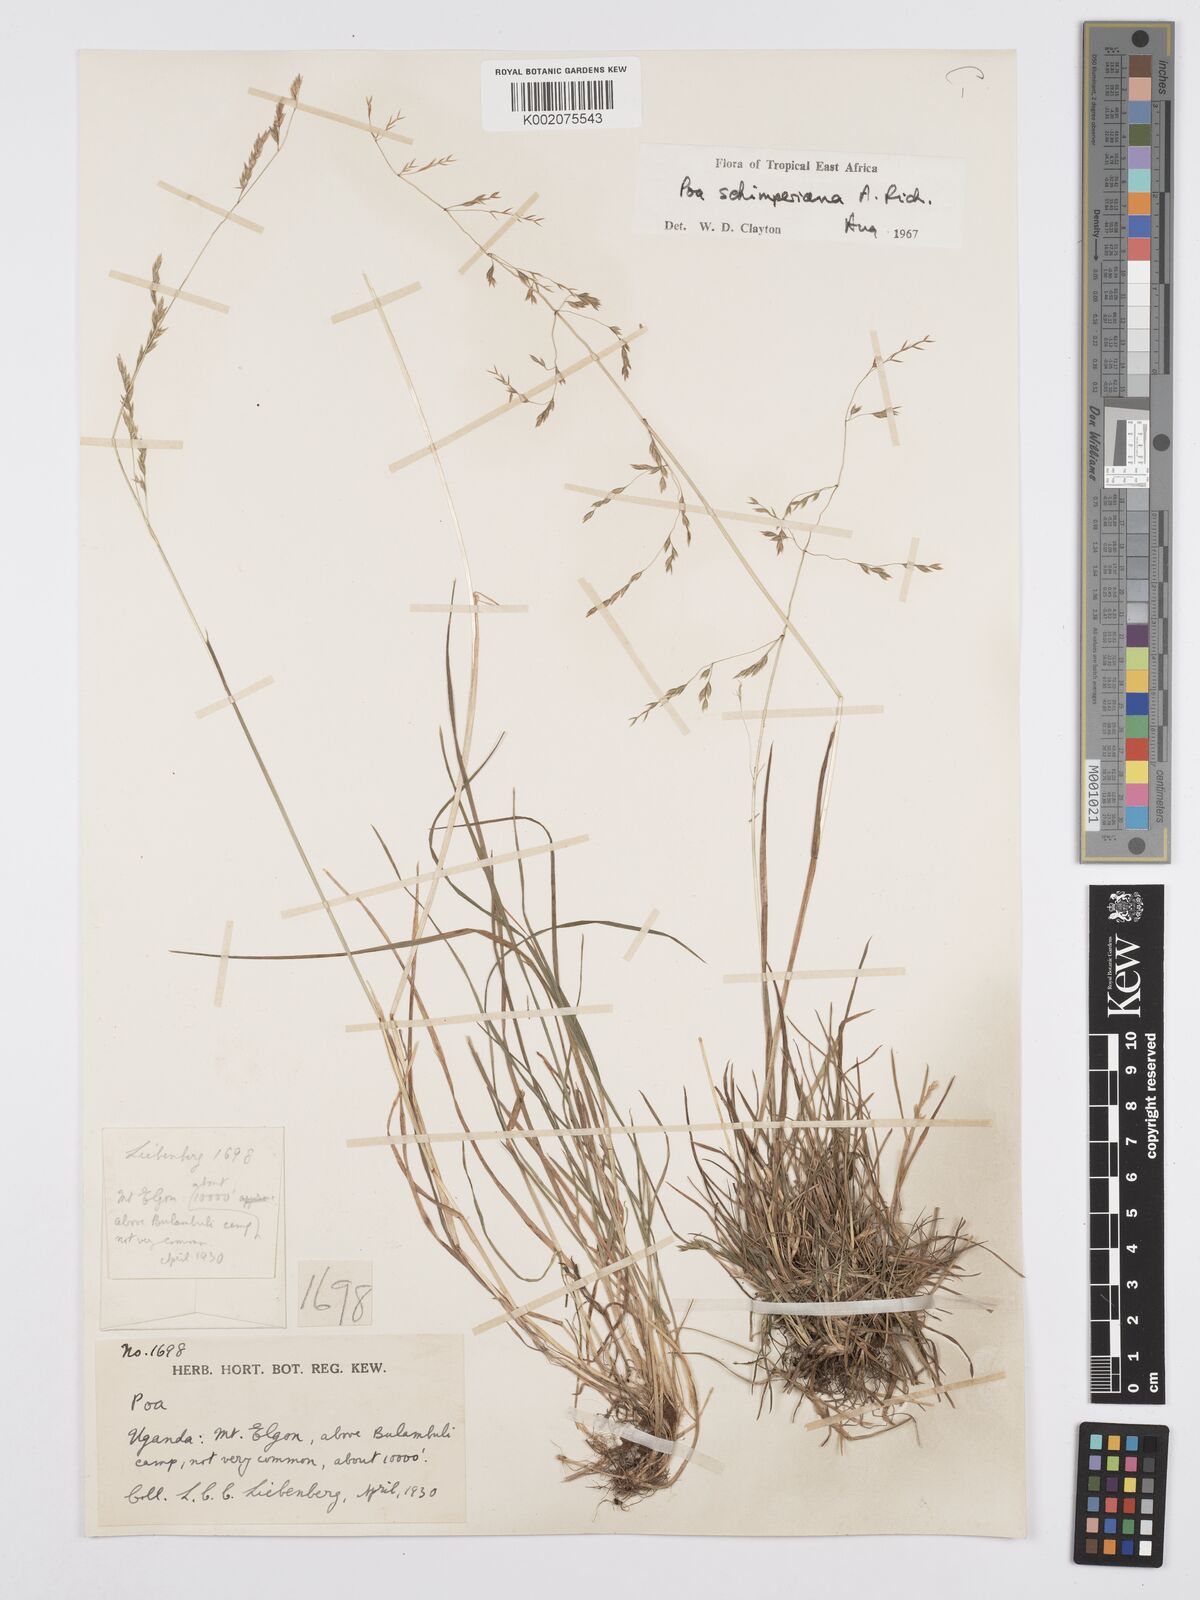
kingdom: Plantae
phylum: Tracheophyta
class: Liliopsida
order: Poales
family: Poaceae
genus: Poa
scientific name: Poa schimperiana
